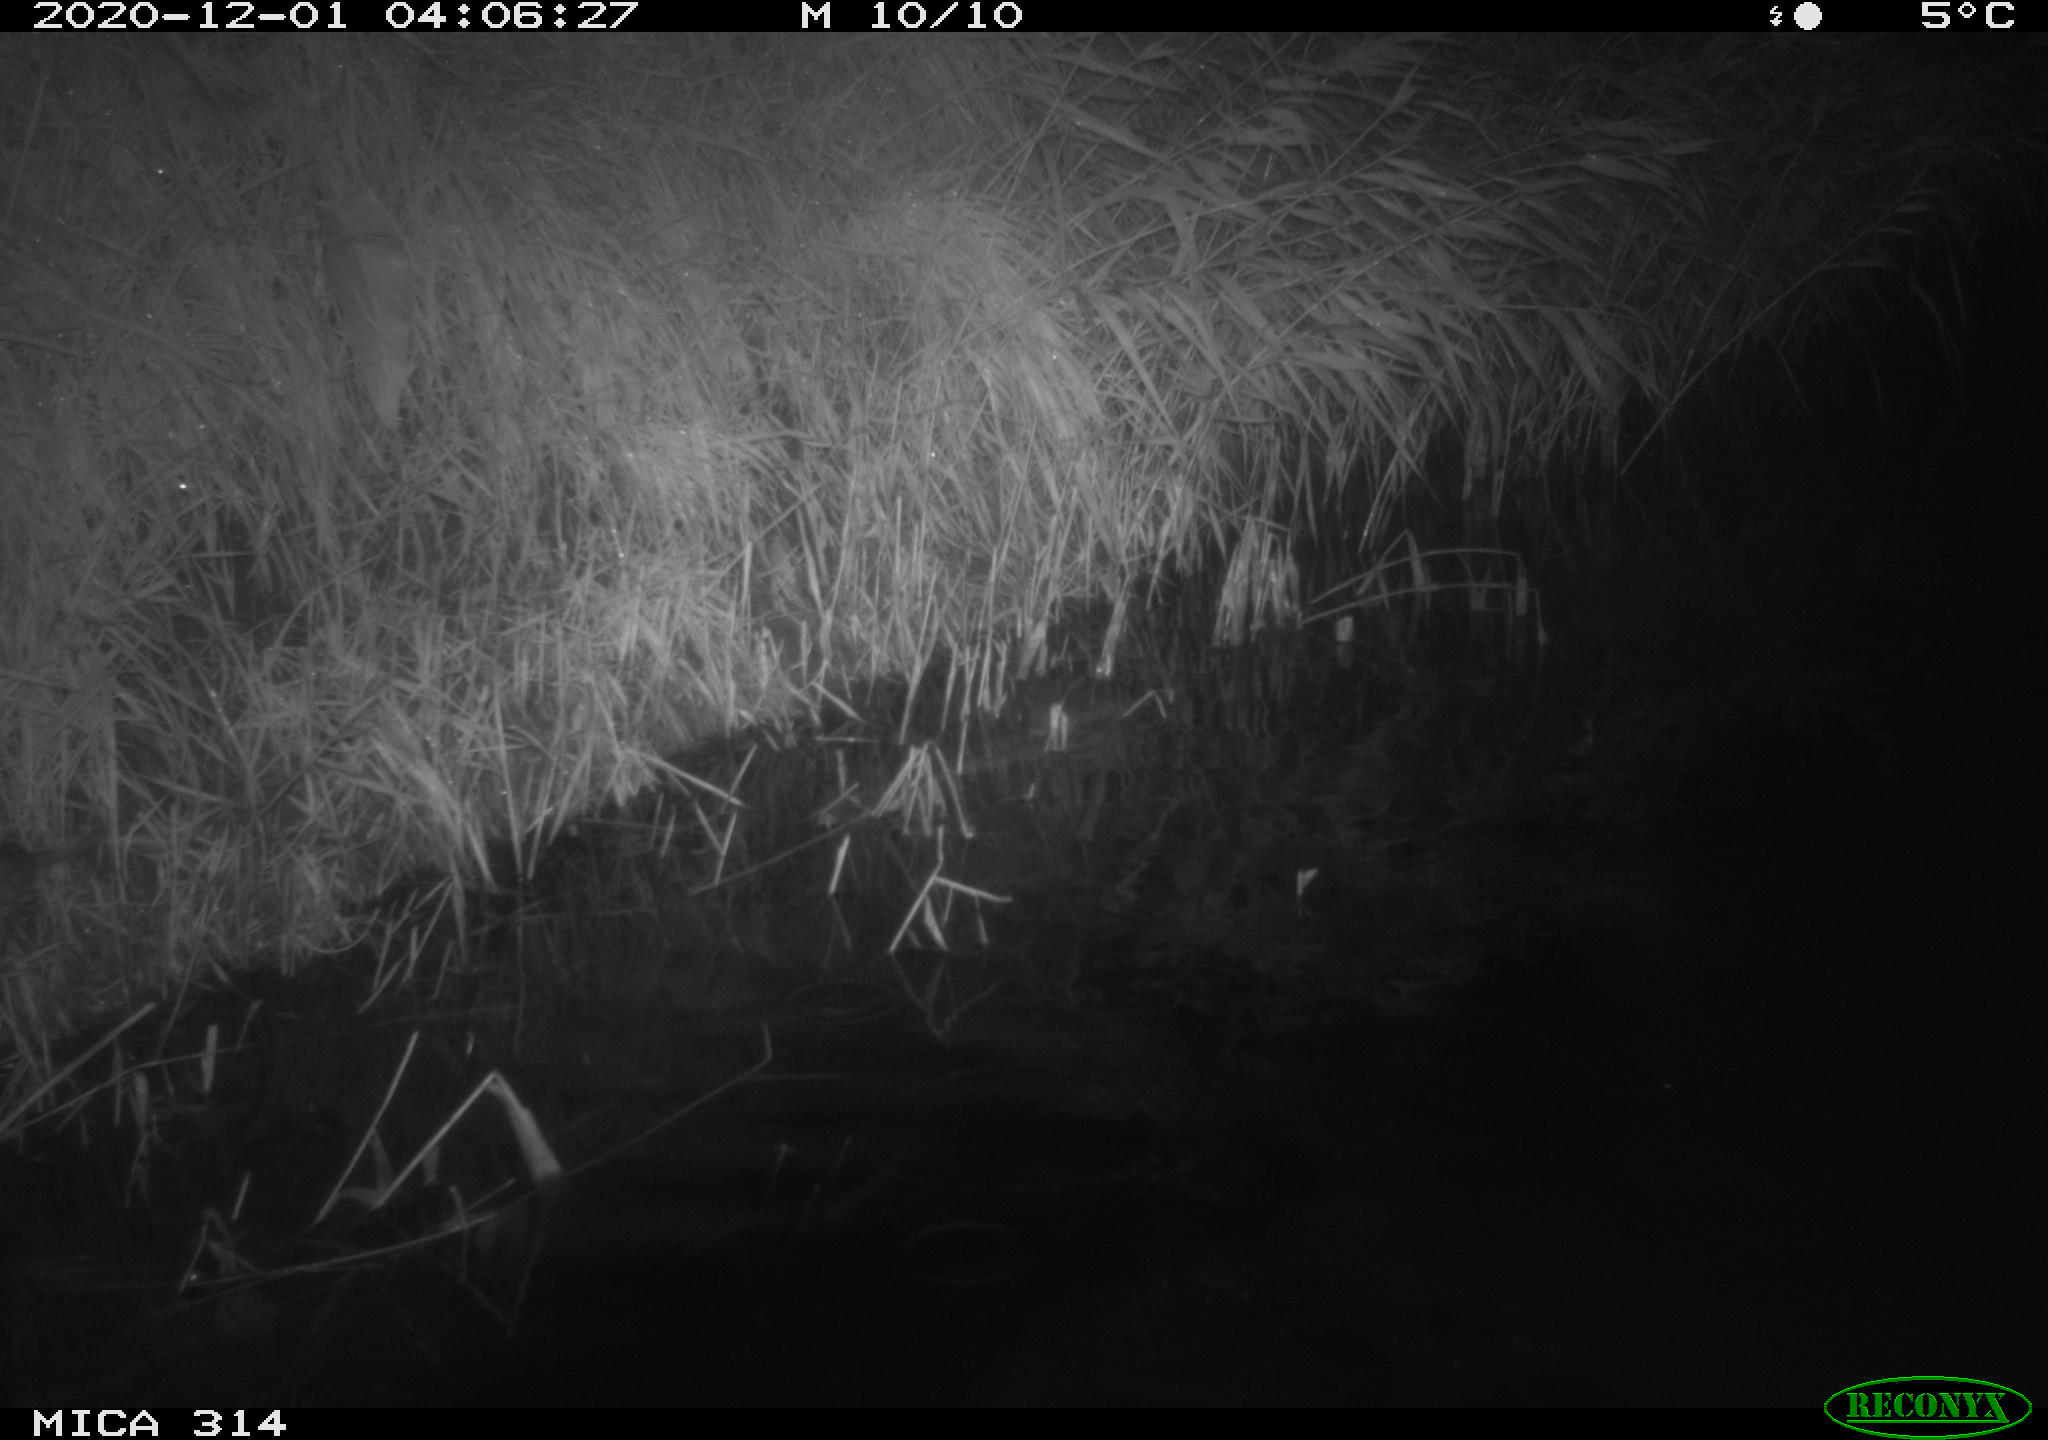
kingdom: Animalia
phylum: Chordata
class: Mammalia
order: Rodentia
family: Muridae
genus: Rattus
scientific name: Rattus norvegicus
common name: Brown rat
